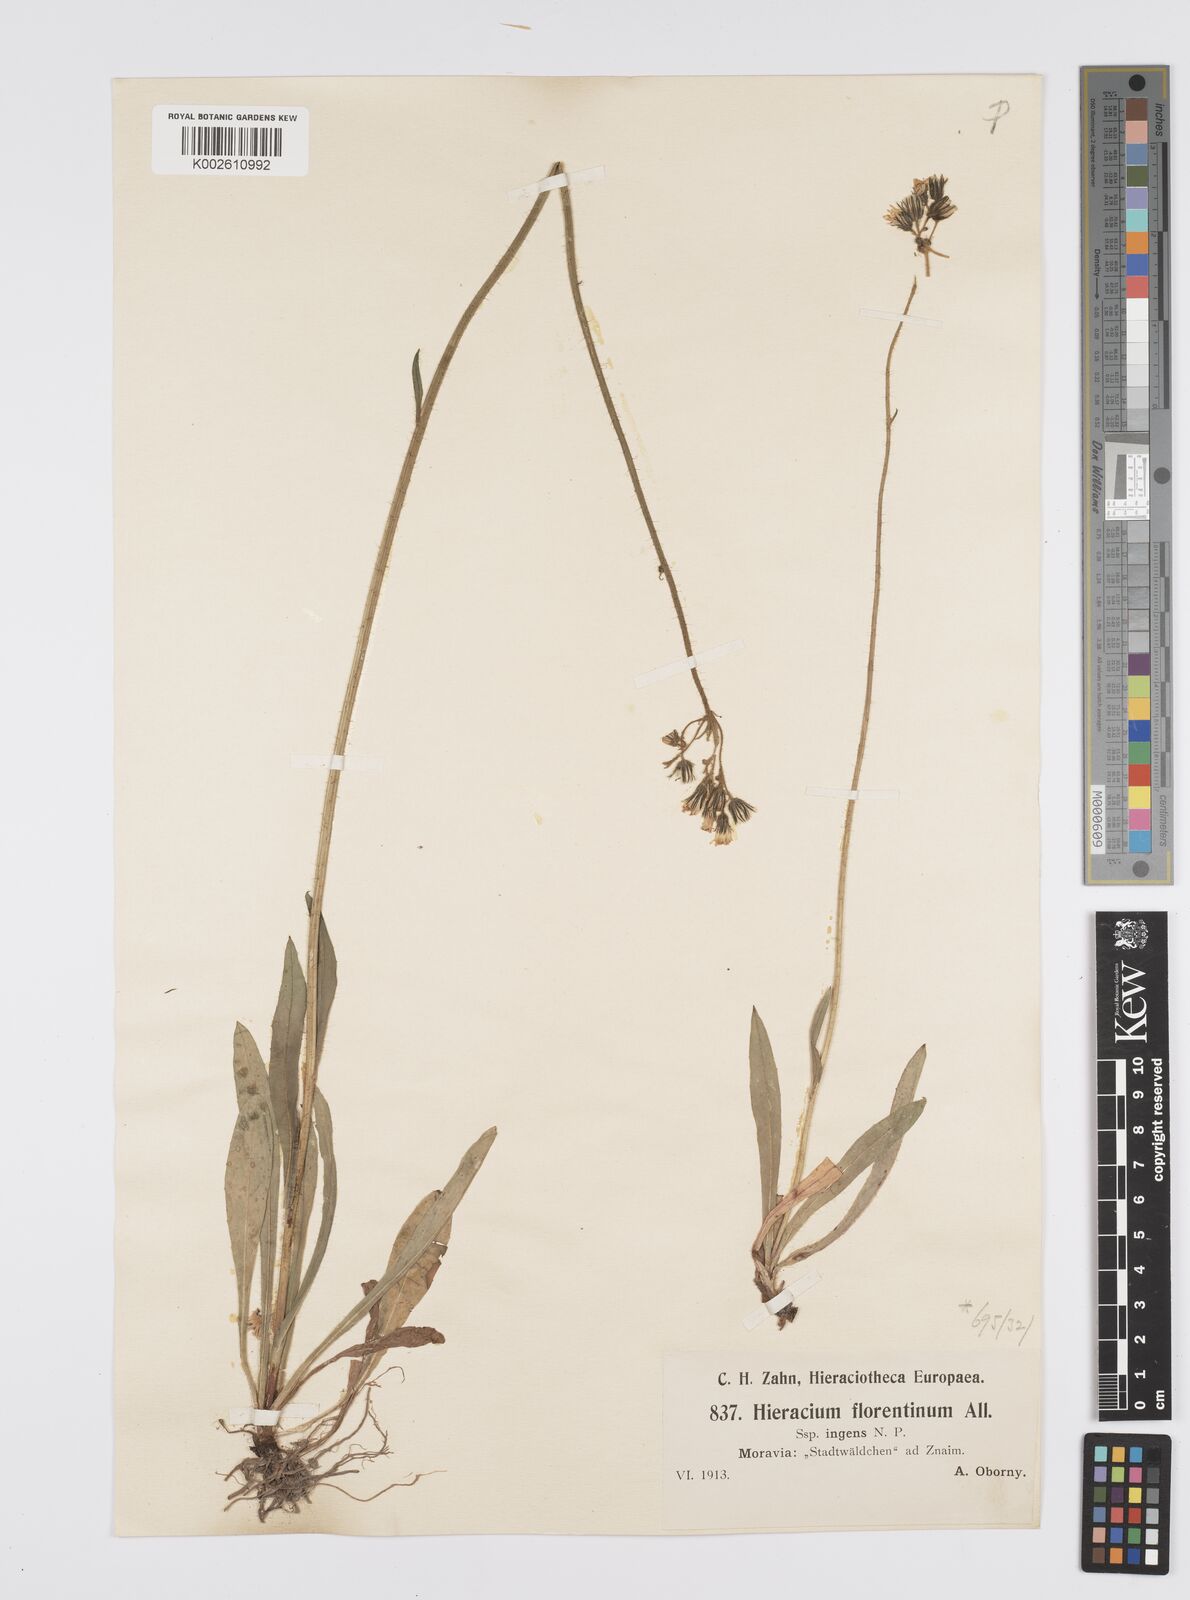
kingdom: Plantae
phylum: Tracheophyta
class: Magnoliopsida
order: Asterales
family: Asteraceae
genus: Pilosella
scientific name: Pilosella piloselloides
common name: Glaucous king-devil
